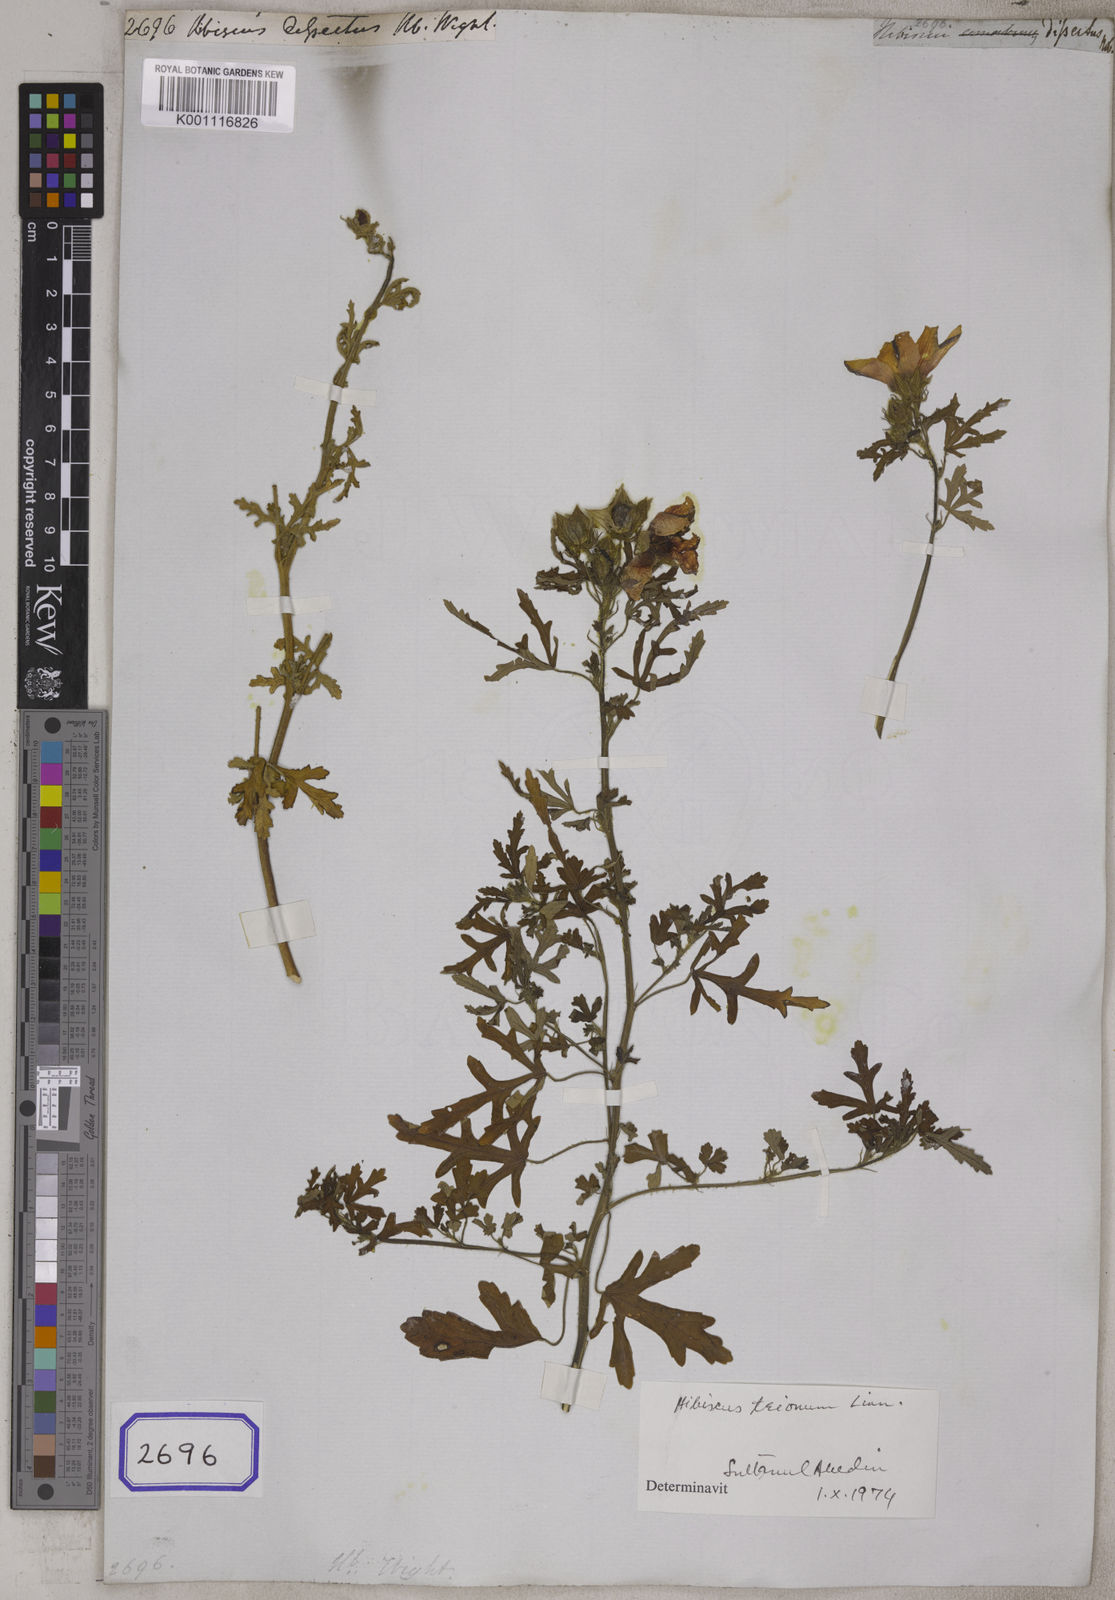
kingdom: Plantae
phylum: Tracheophyta
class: Magnoliopsida
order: Malvales
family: Malvaceae
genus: Hibiscus
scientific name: Hibiscus trionum
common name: Bladder ketmia
